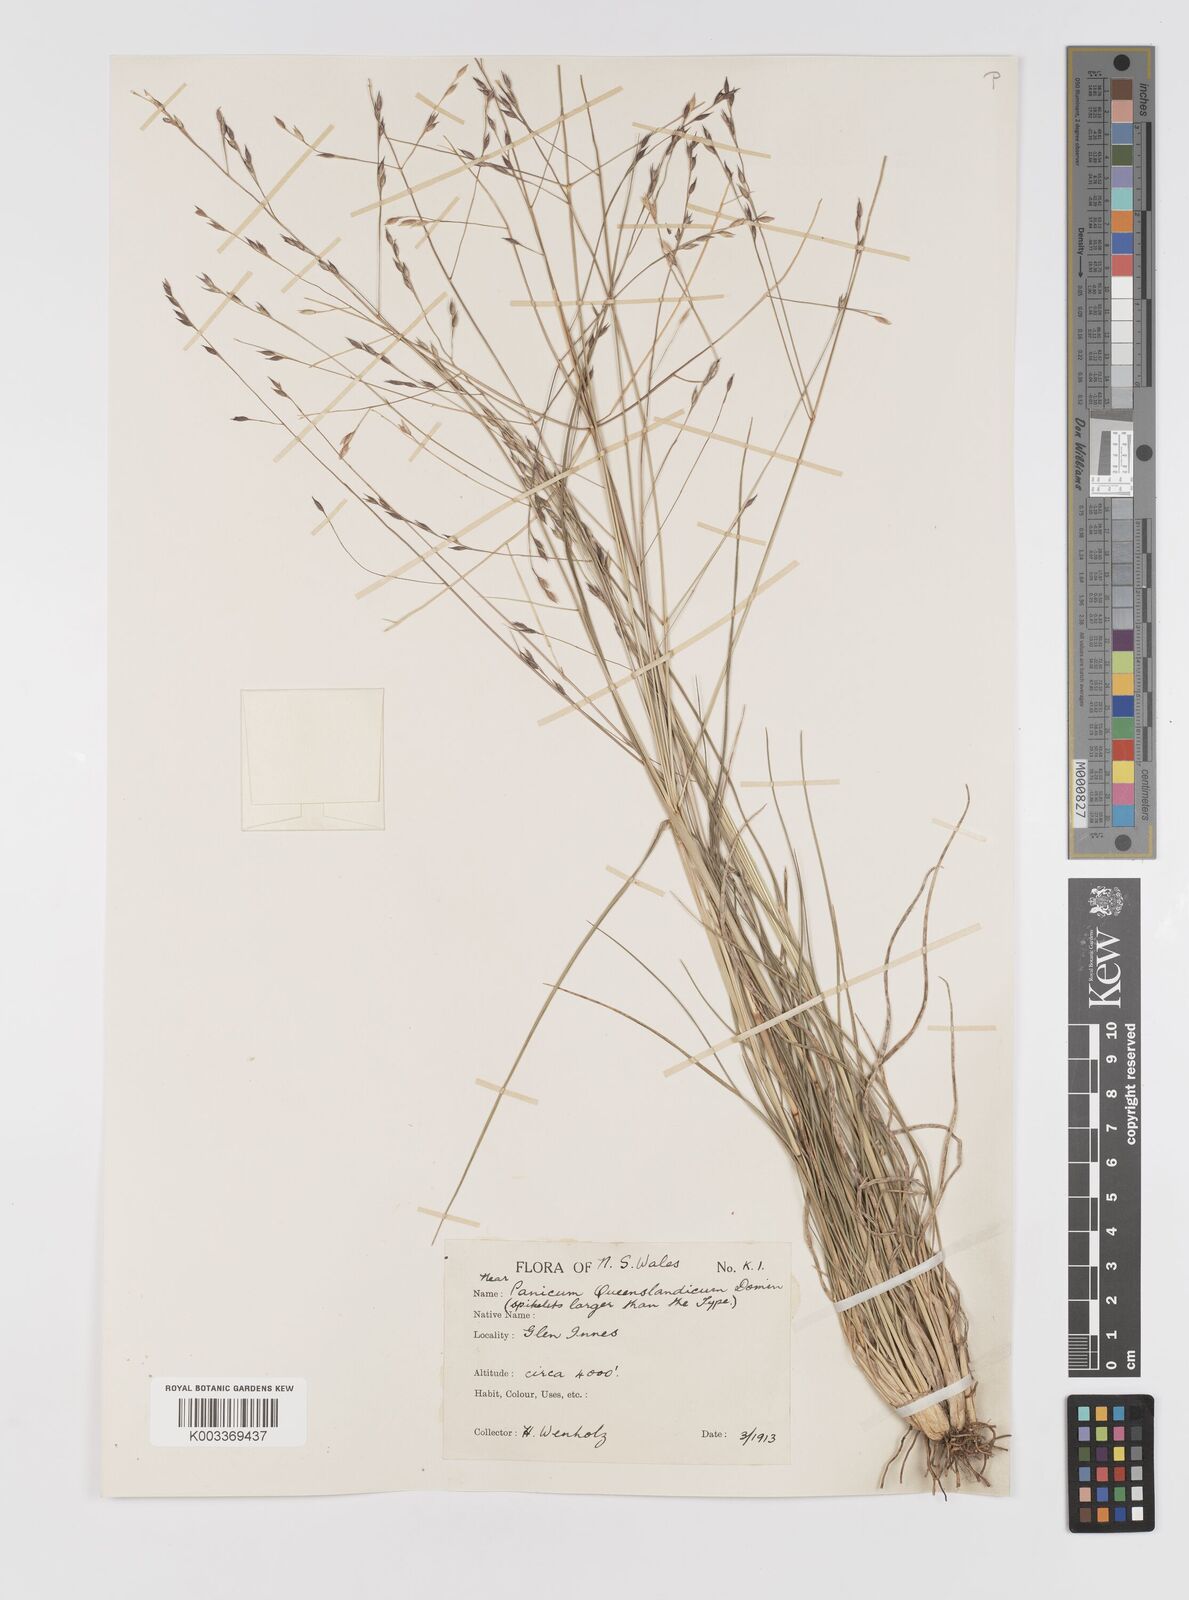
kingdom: Plantae
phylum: Tracheophyta
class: Liliopsida
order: Poales
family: Poaceae
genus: Panicum
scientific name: Panicum queenslandicum
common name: Yabila grass
